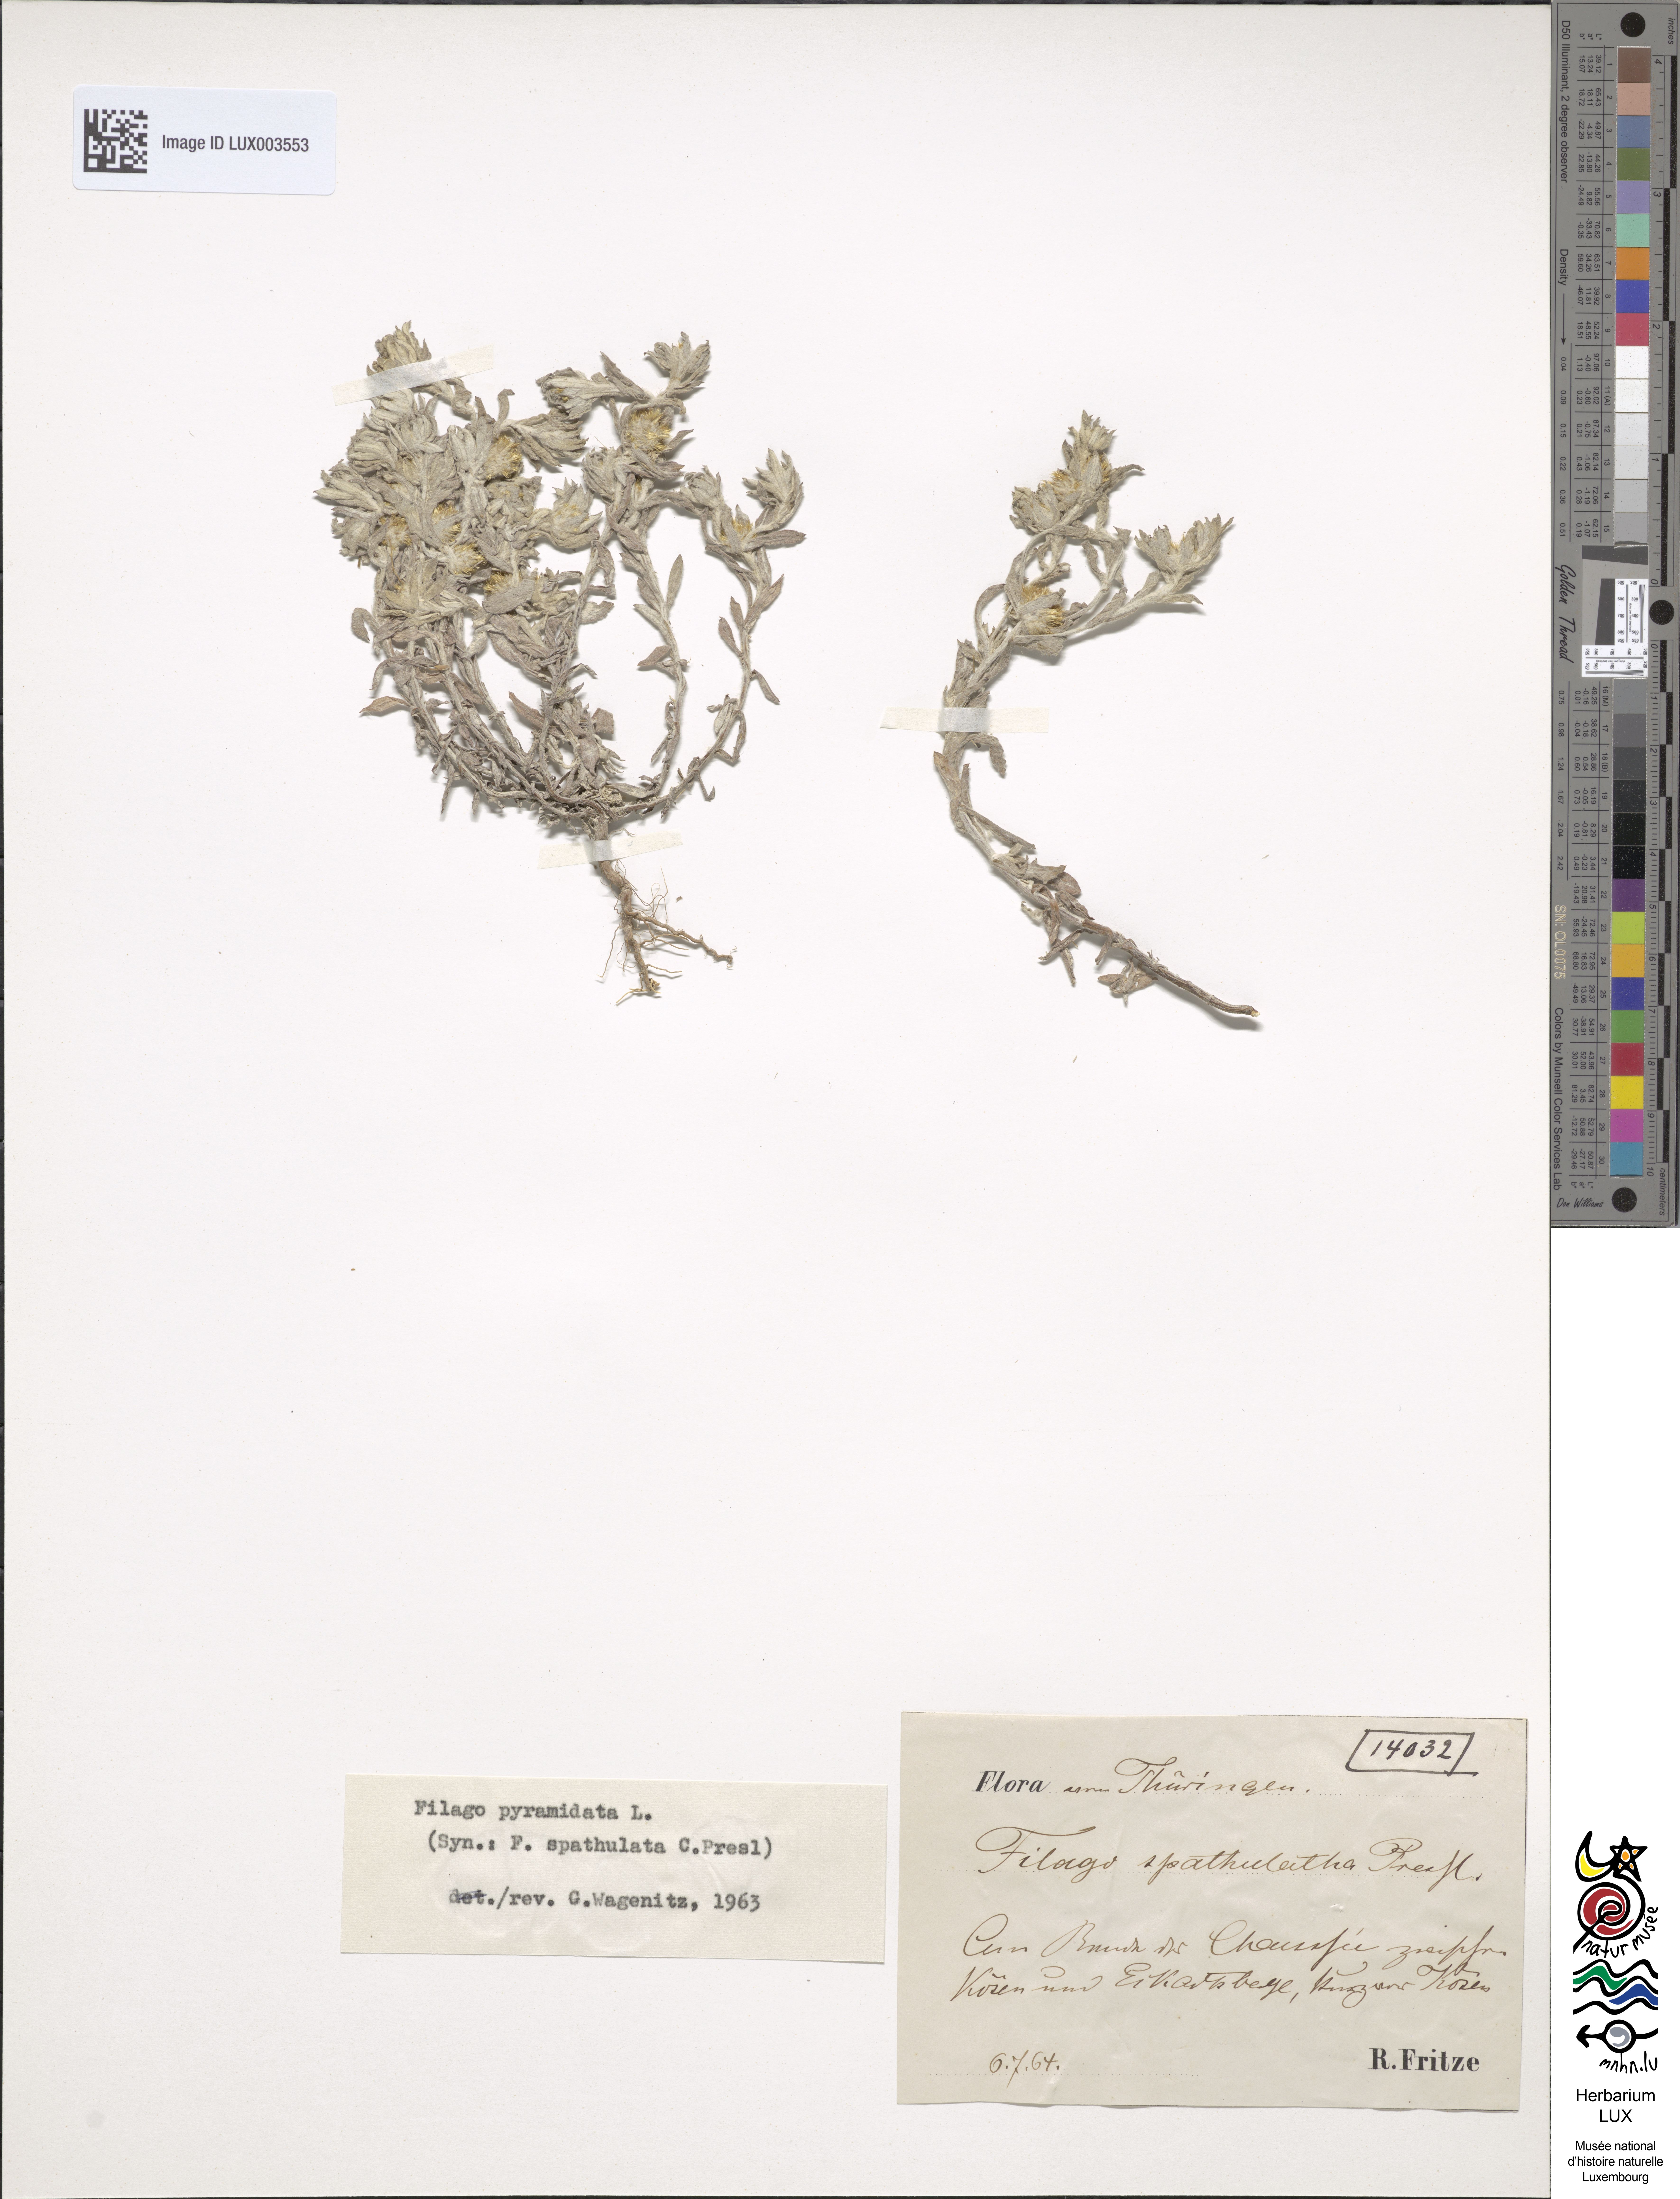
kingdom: Plantae
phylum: Tracheophyta
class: Magnoliopsida
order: Asterales
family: Asteraceae
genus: Filago
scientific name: Filago pyramidata
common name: Broad-leaved cudweed
